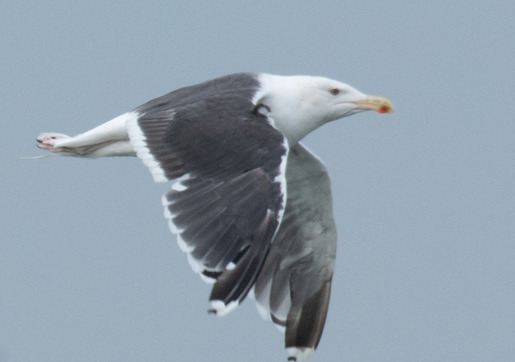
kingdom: Animalia
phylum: Chordata
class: Aves
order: Charadriiformes
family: Laridae
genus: Larus
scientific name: Larus marinus
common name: Svartbag
